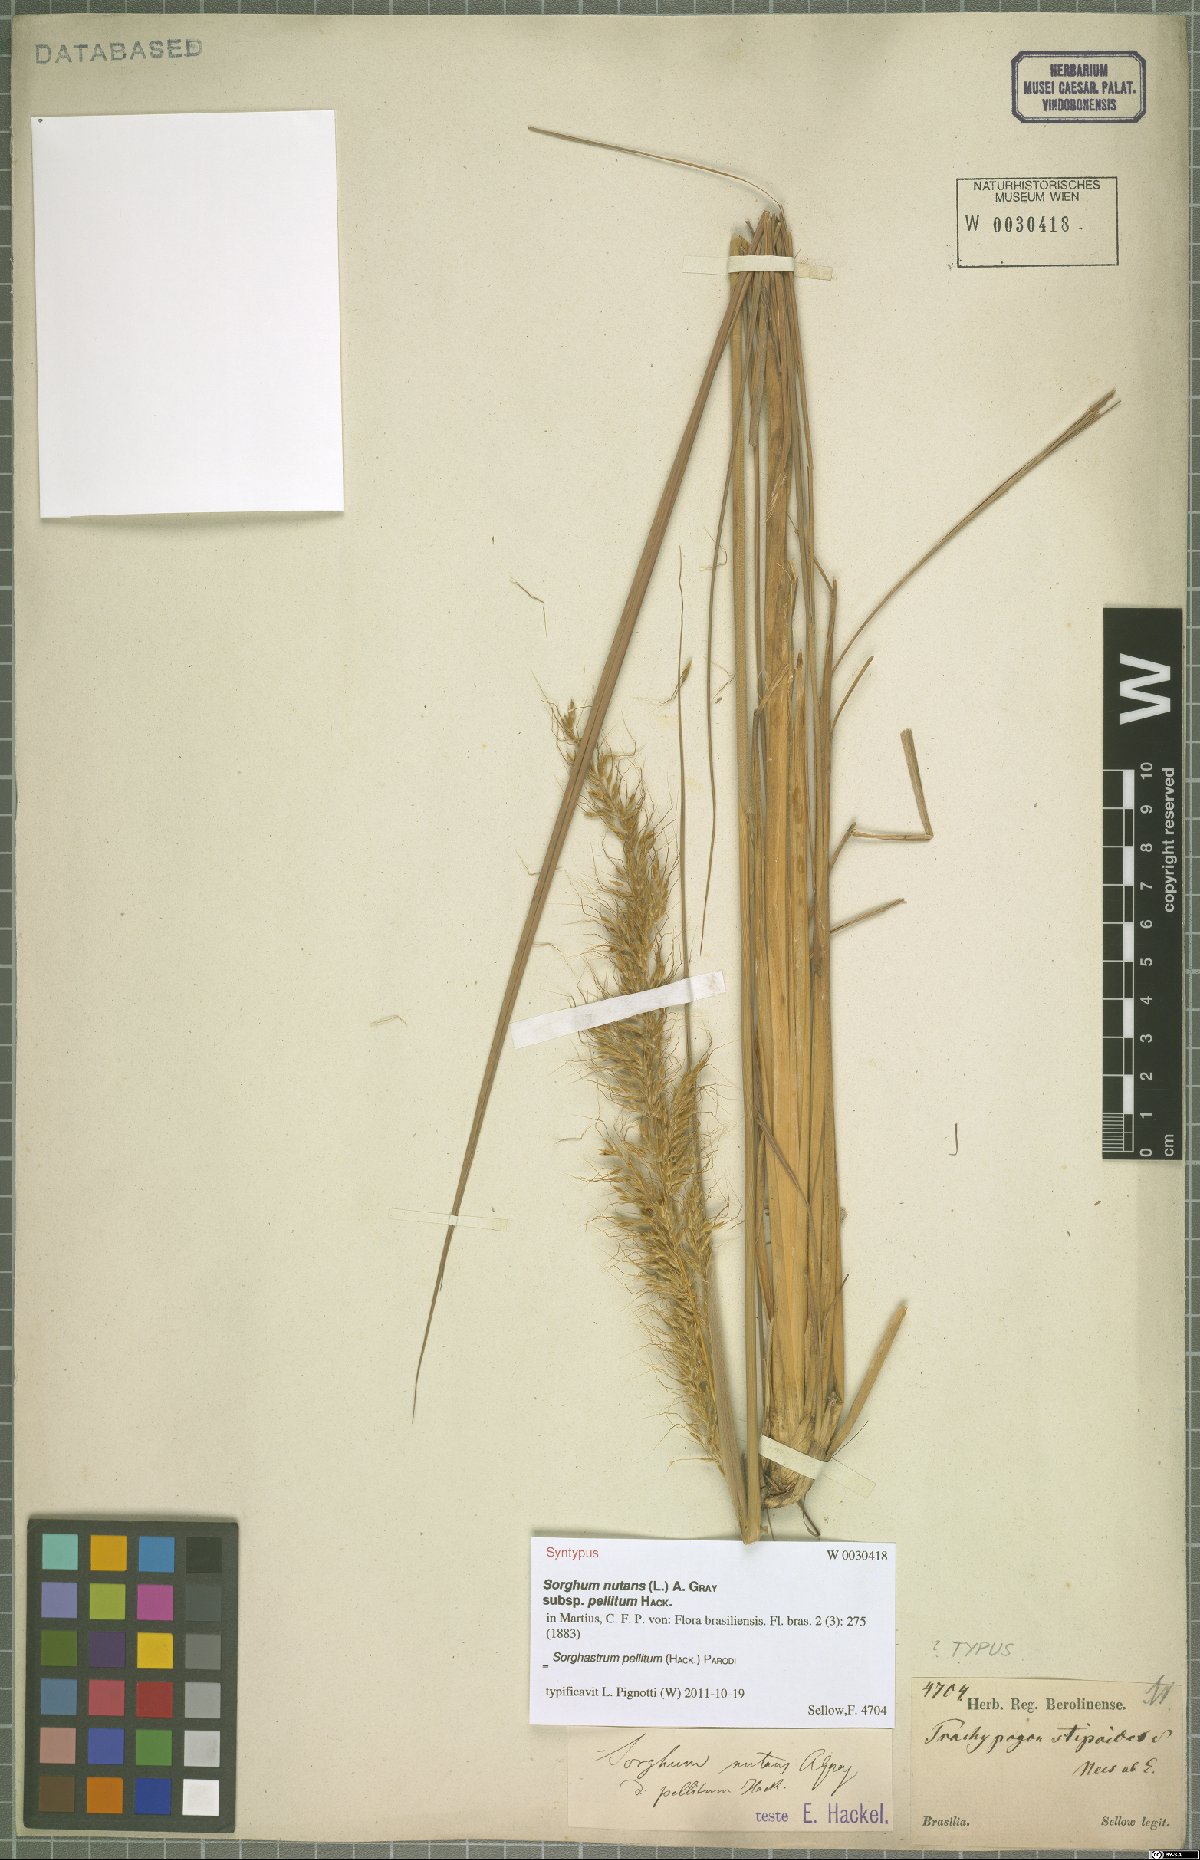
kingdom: Plantae
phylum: Tracheophyta
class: Liliopsida
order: Poales
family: Poaceae
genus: Sorghastrum
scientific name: Sorghastrum pellitum
